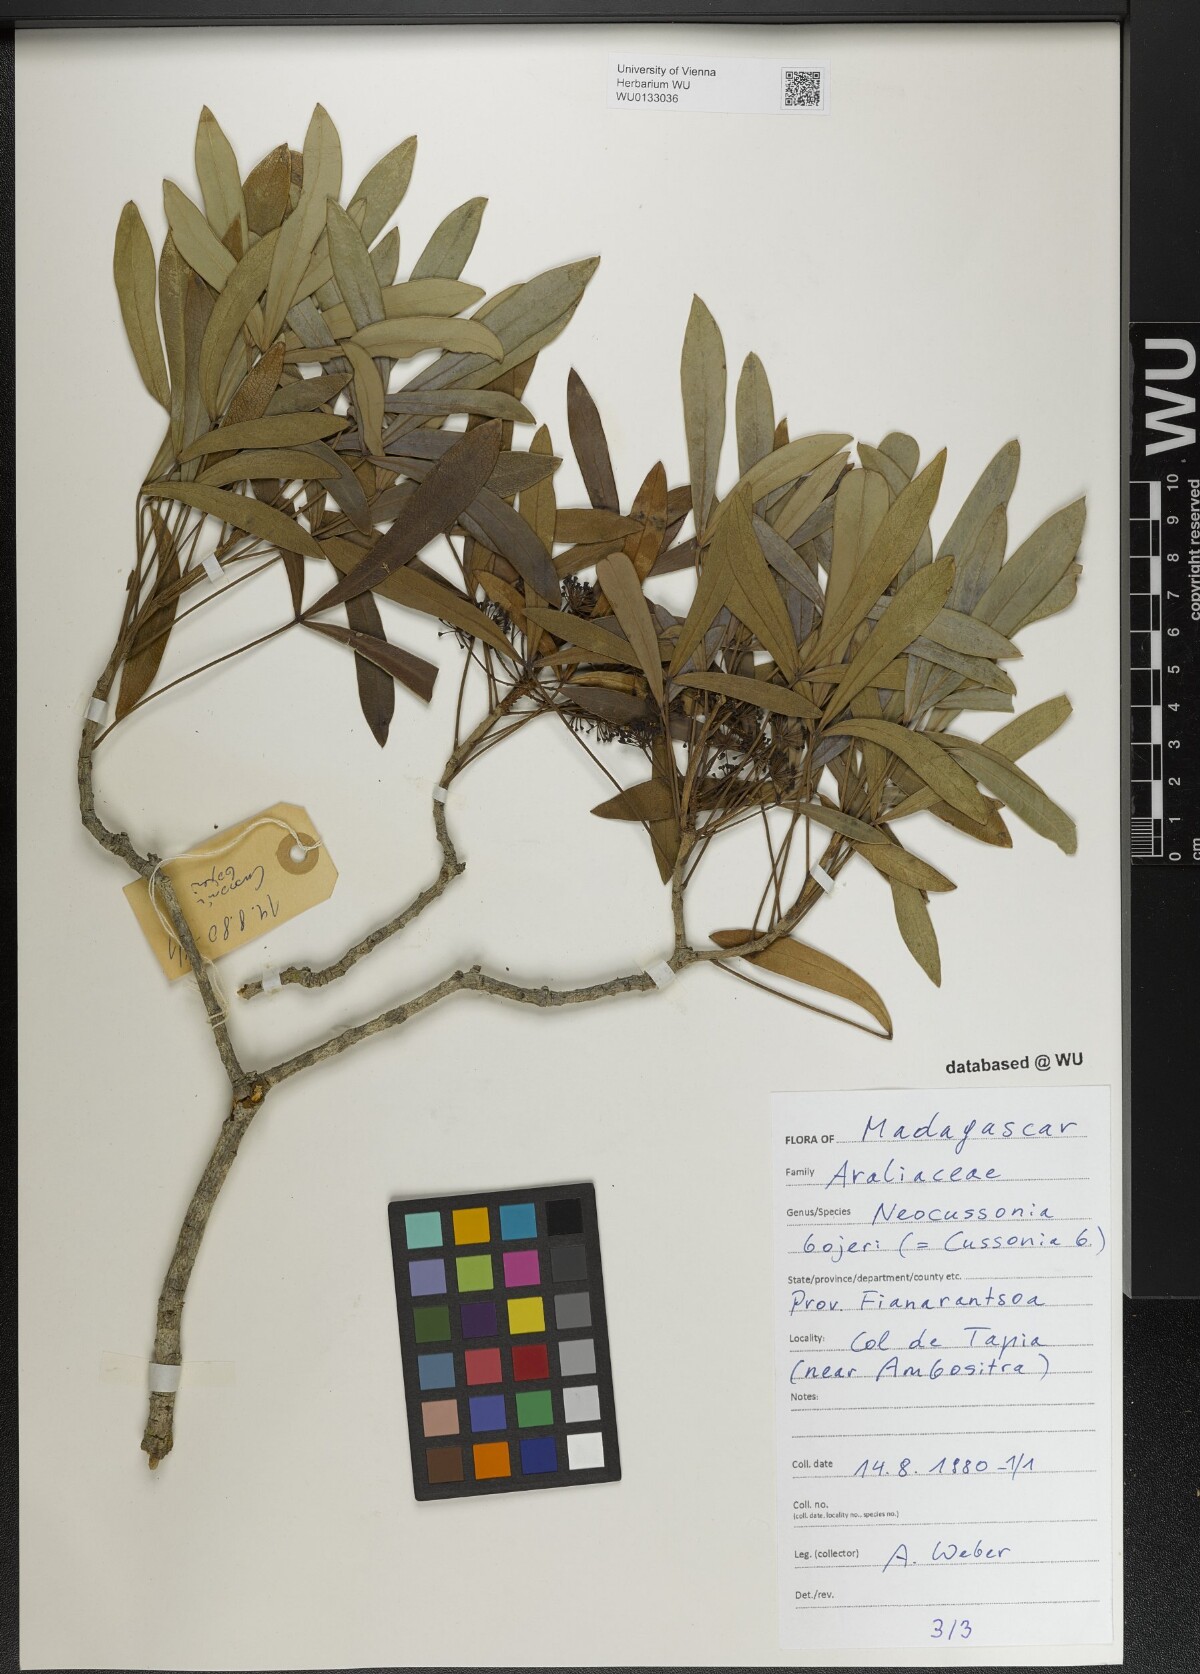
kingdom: Plantae
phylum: Tracheophyta
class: Magnoliopsida
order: Apiales
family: Araliaceae
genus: Neocussonia
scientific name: Neocussonia bojeri
